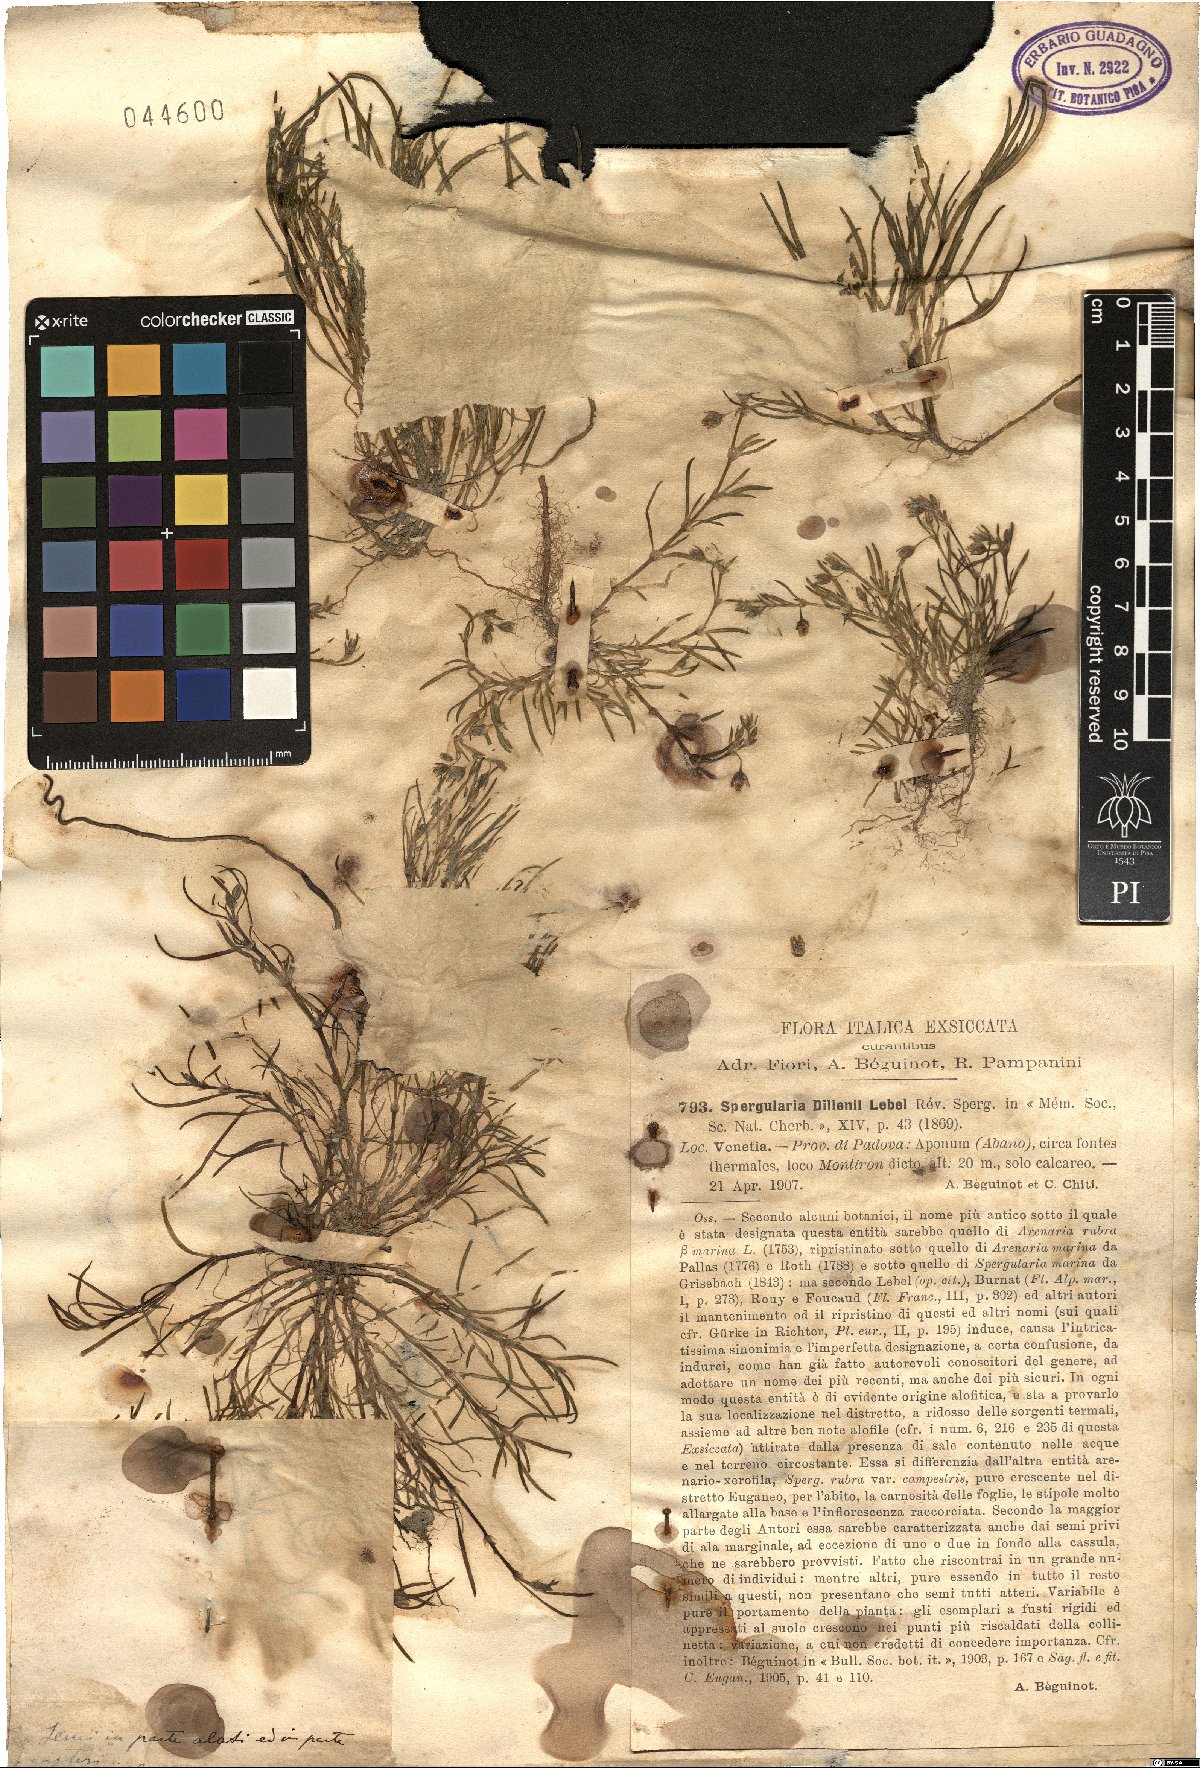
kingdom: Plantae
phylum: Tracheophyta
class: Magnoliopsida
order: Caryophyllales
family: Caryophyllaceae
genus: Spergularia
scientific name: Spergularia marina
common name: Lesser sea-spurrey
